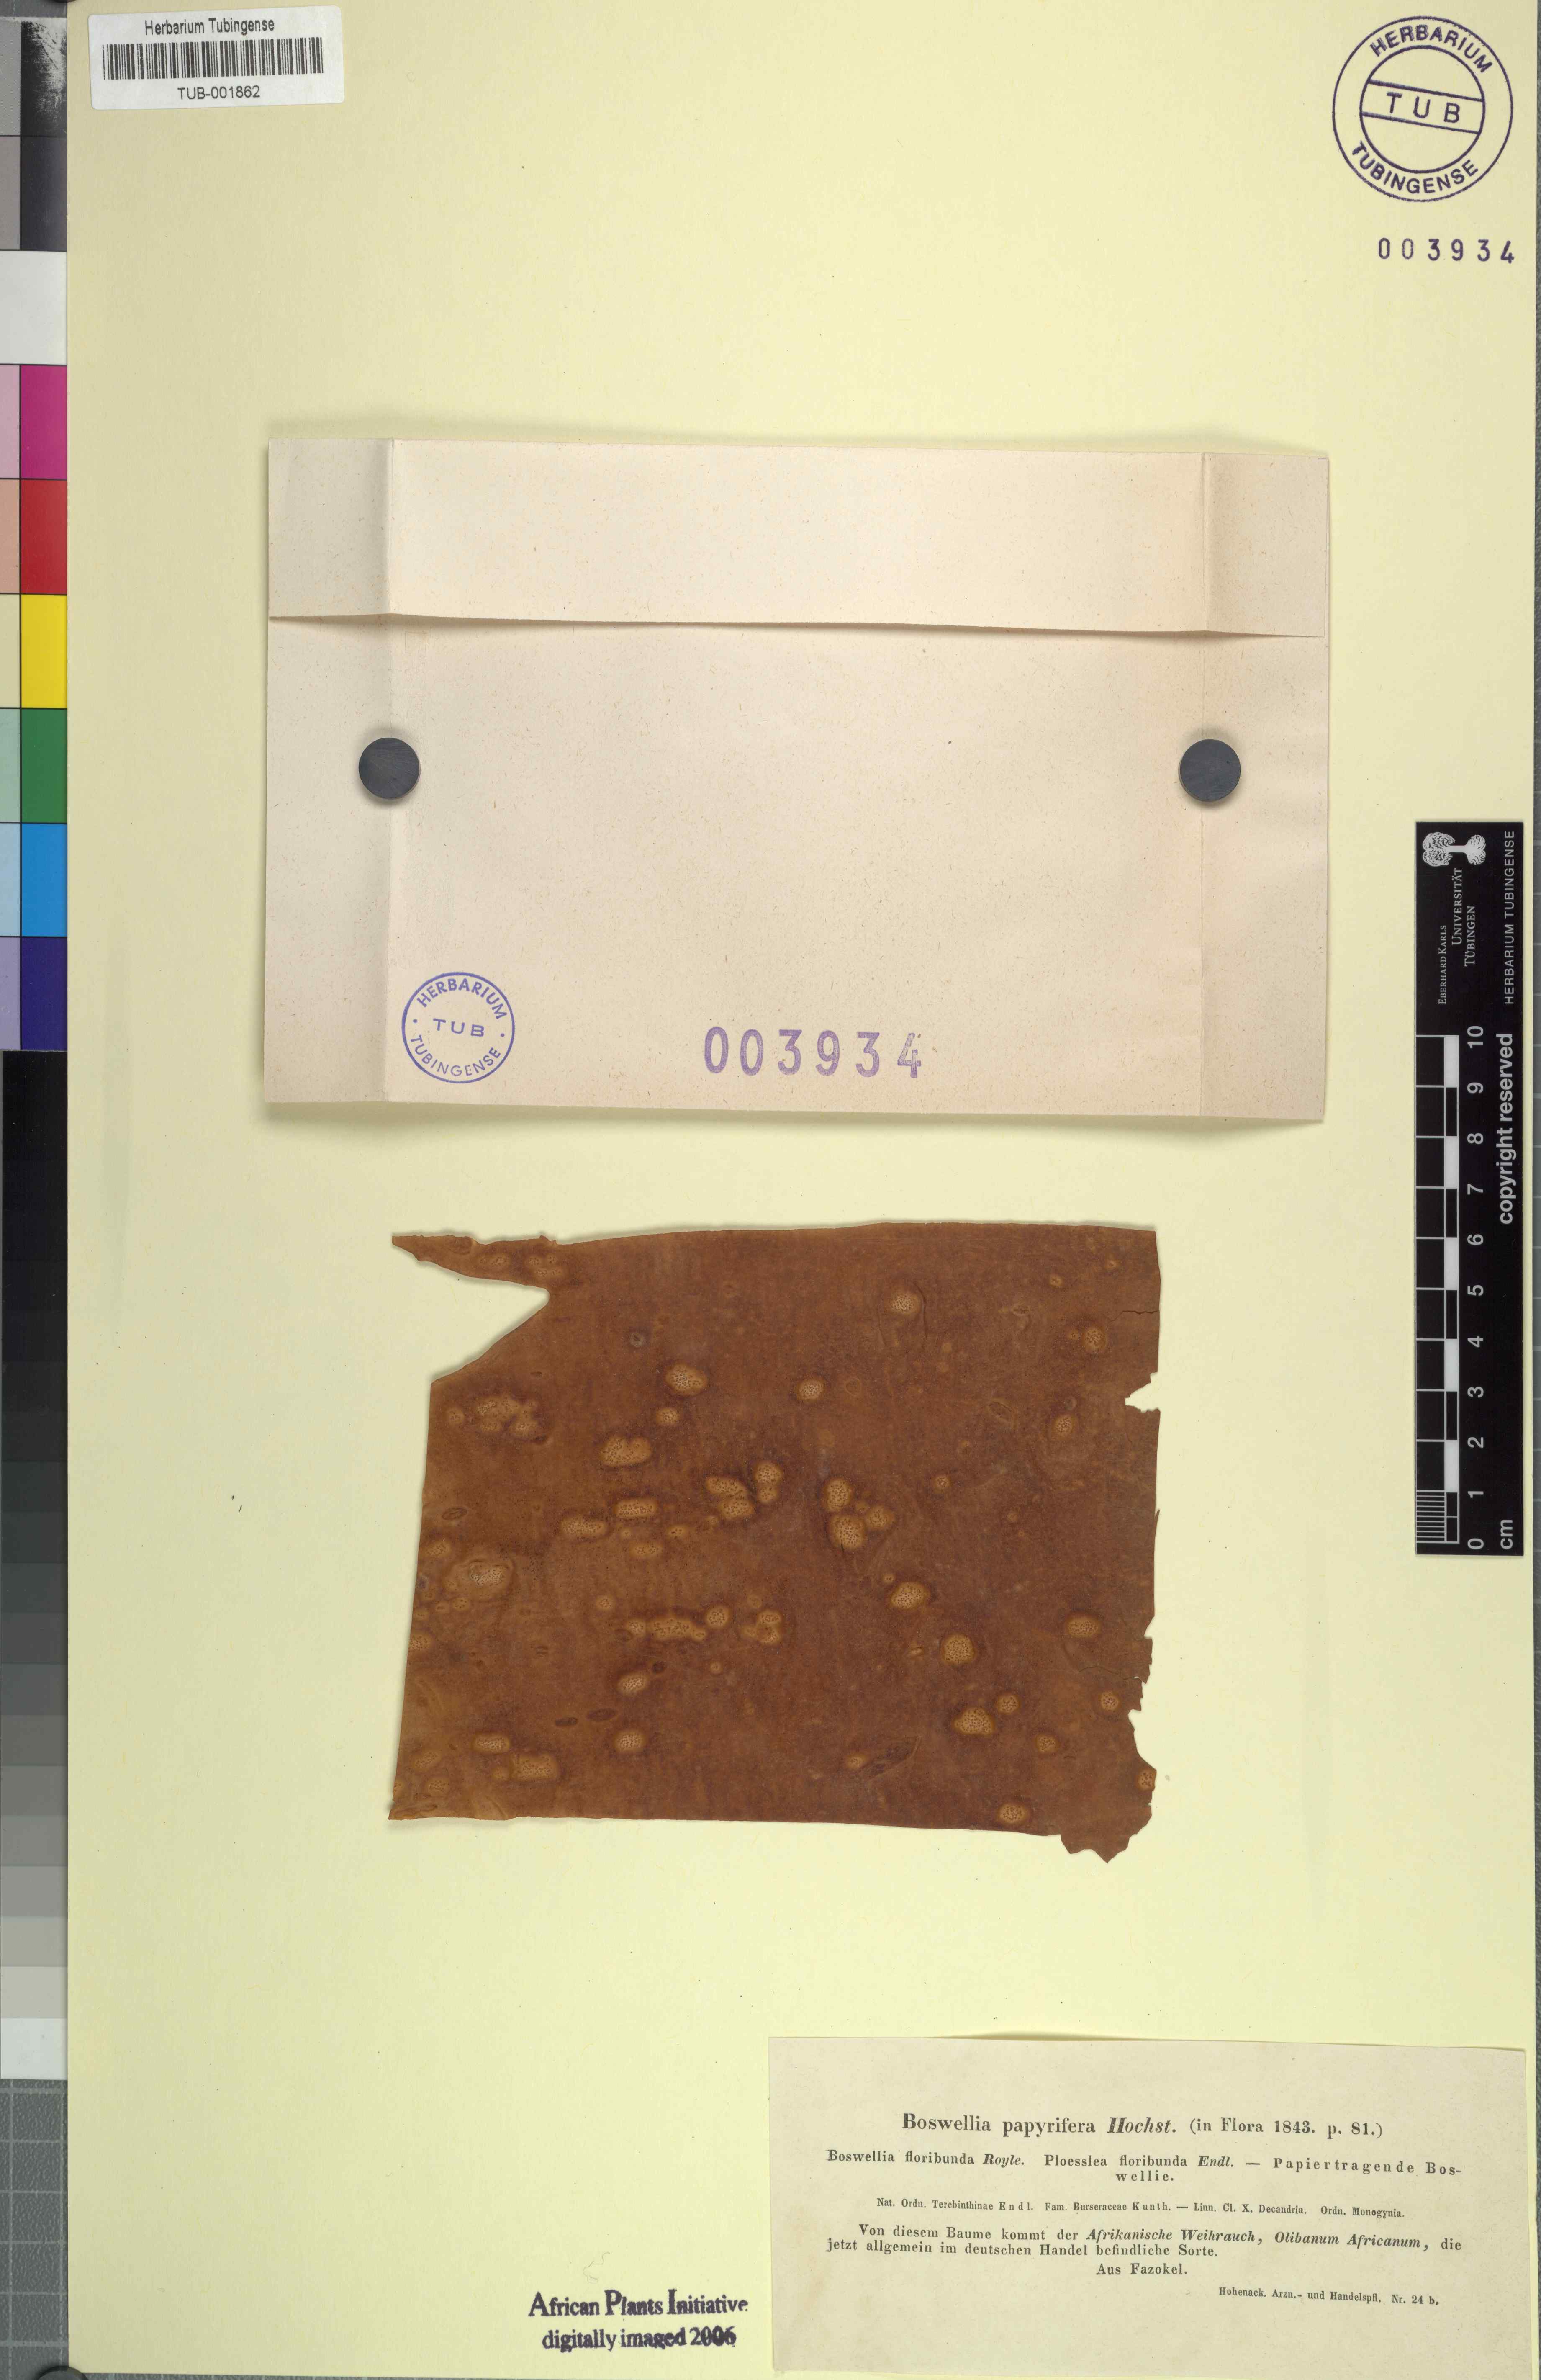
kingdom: Plantae
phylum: Tracheophyta
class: Magnoliopsida
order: Sapindales
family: Burseraceae
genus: Boswellia
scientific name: Boswellia papyrifera
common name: Sudanese frankincense
